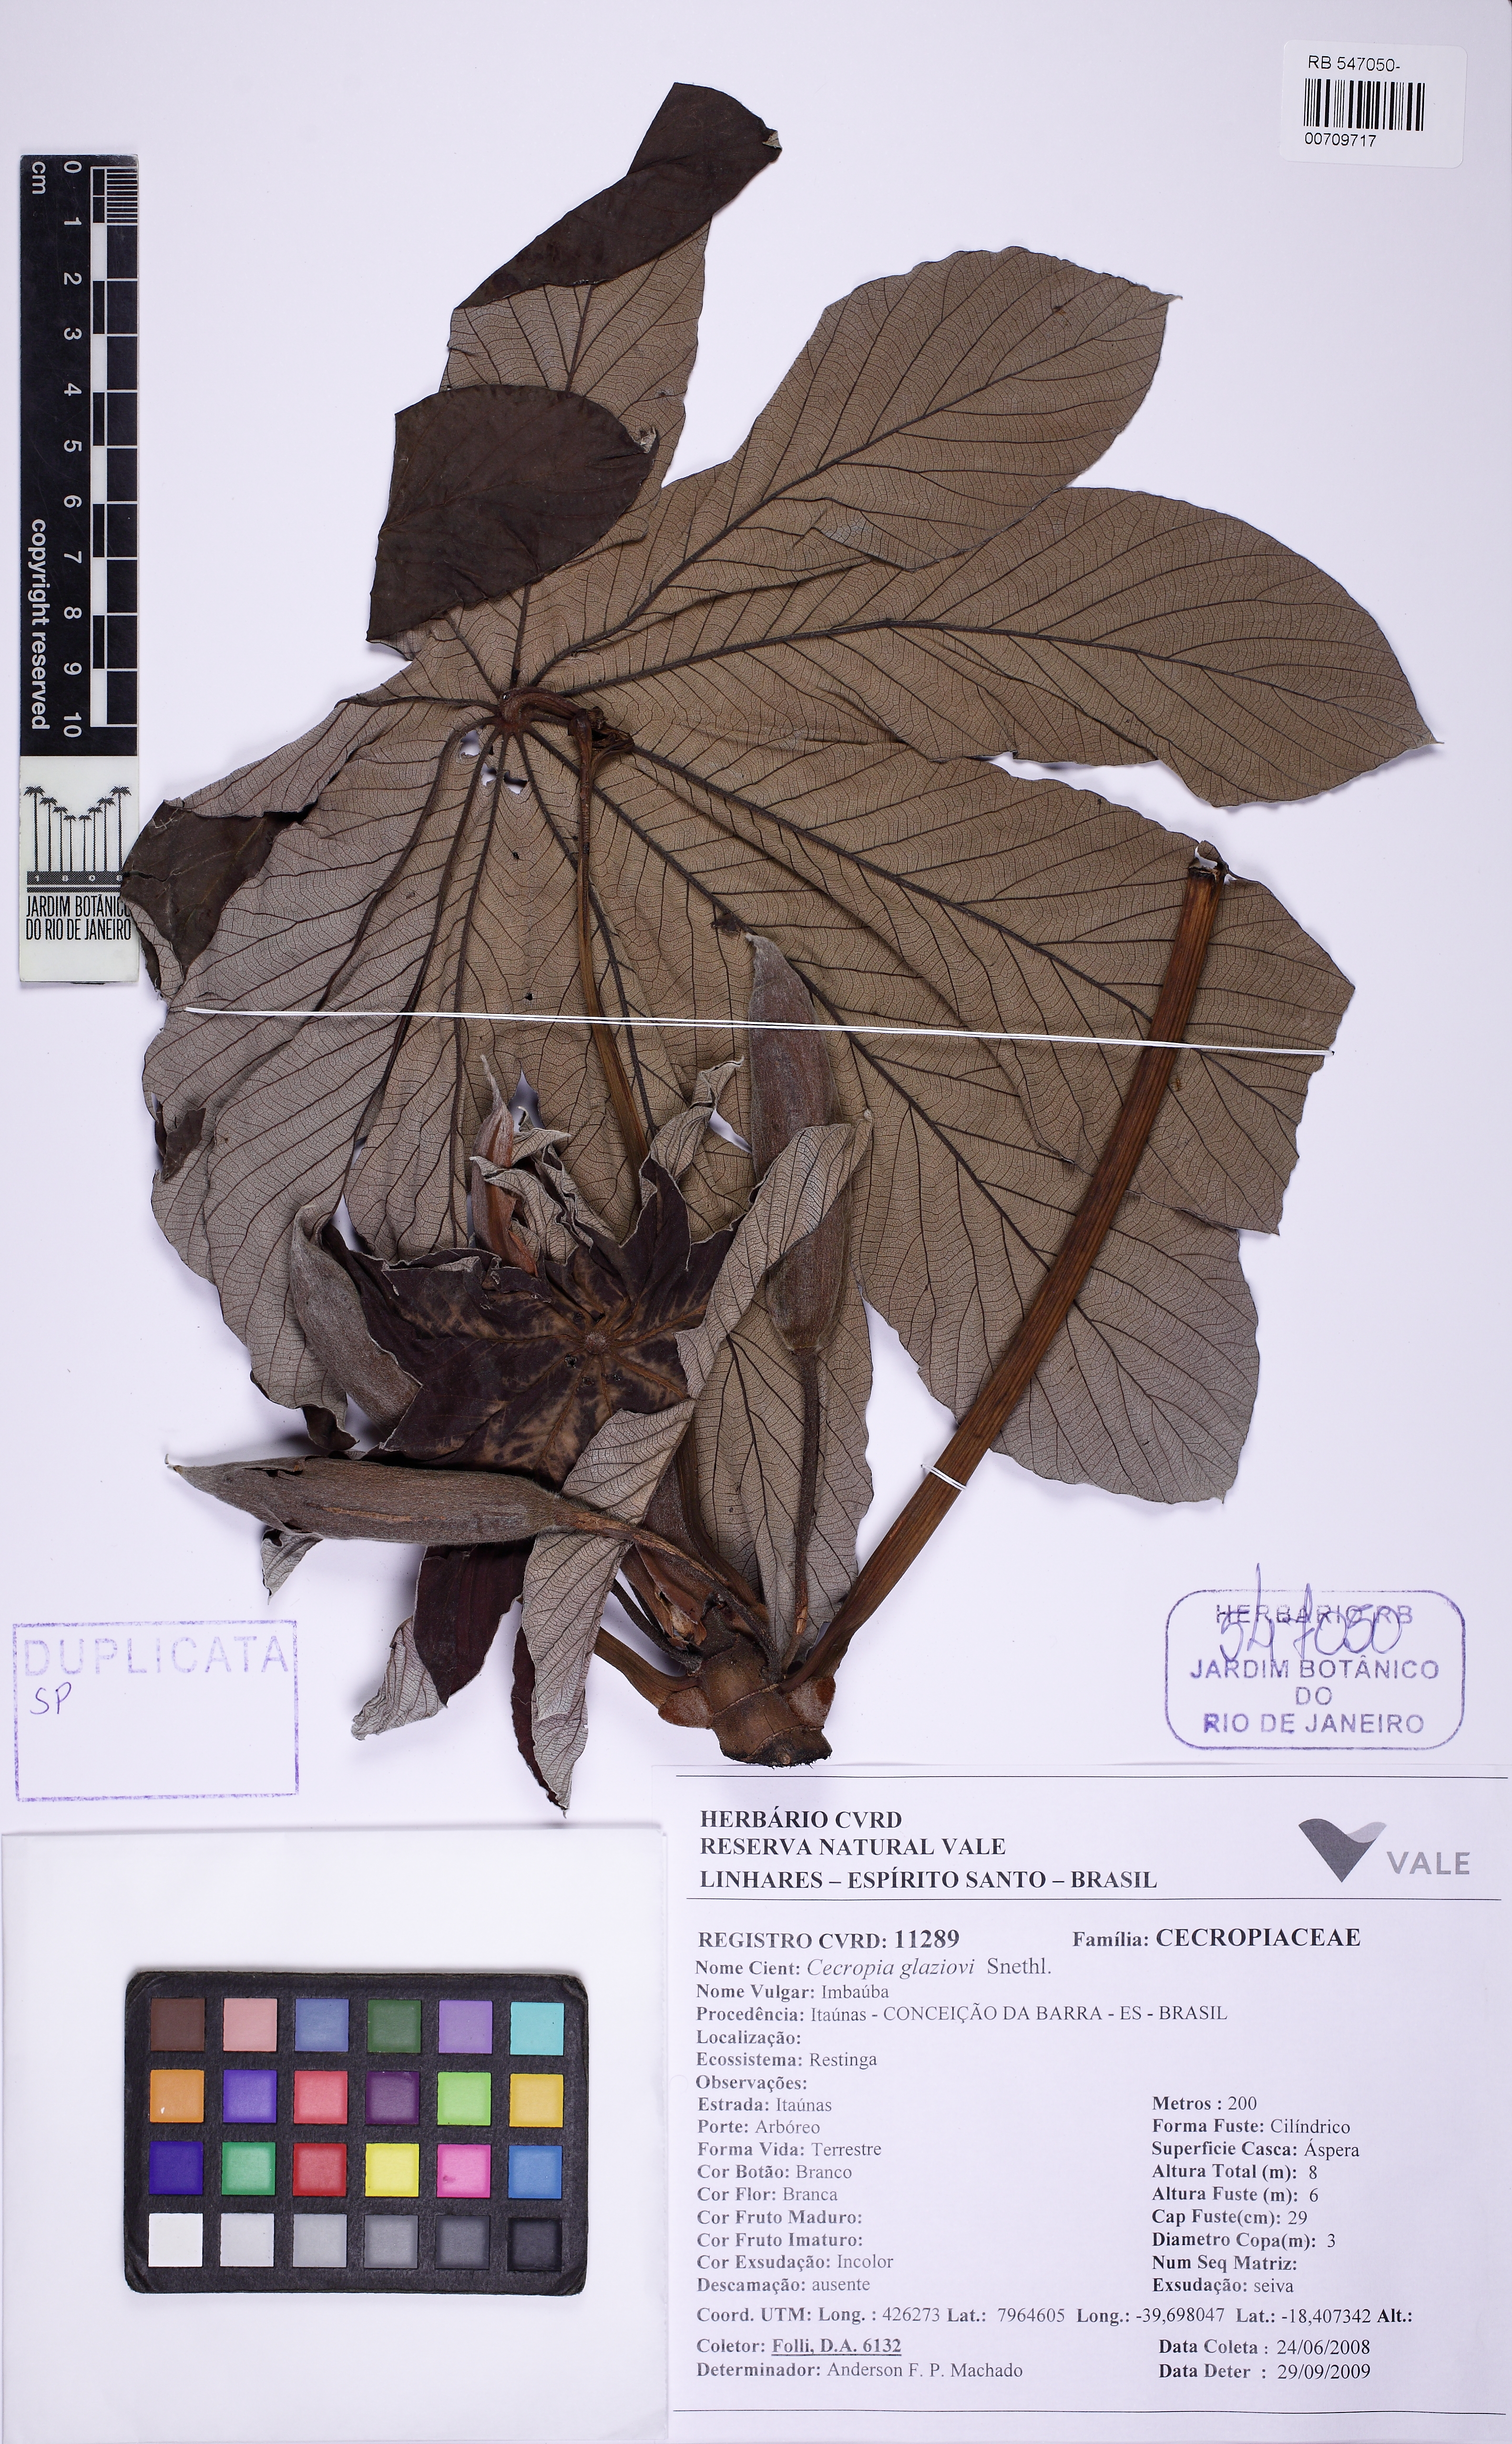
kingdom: Plantae
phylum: Tracheophyta
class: Magnoliopsida
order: Rosales
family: Urticaceae
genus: Cecropia
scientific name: Cecropia pachystachya
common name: Ambay pumpwood
